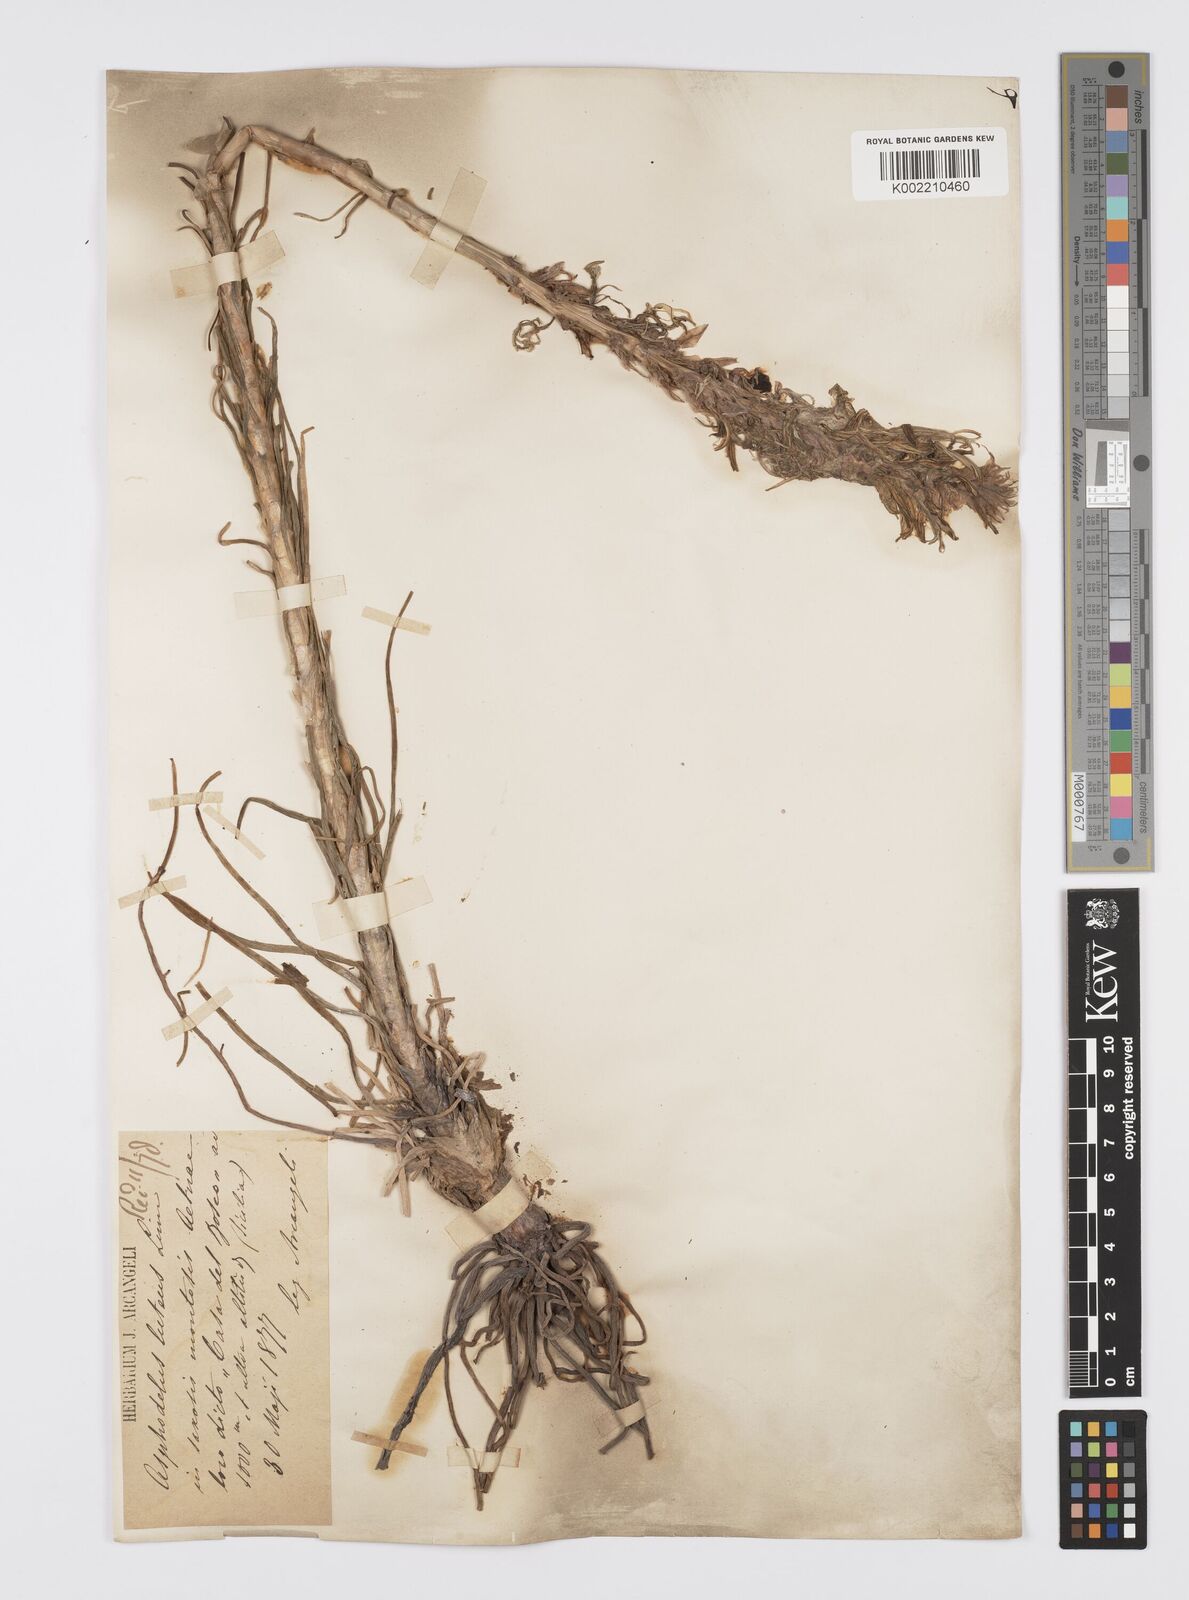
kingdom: Plantae
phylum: Tracheophyta
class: Liliopsida
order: Asparagales
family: Asphodelaceae
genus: Asphodeline
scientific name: Asphodeline lutea
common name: Yellow asphodel
